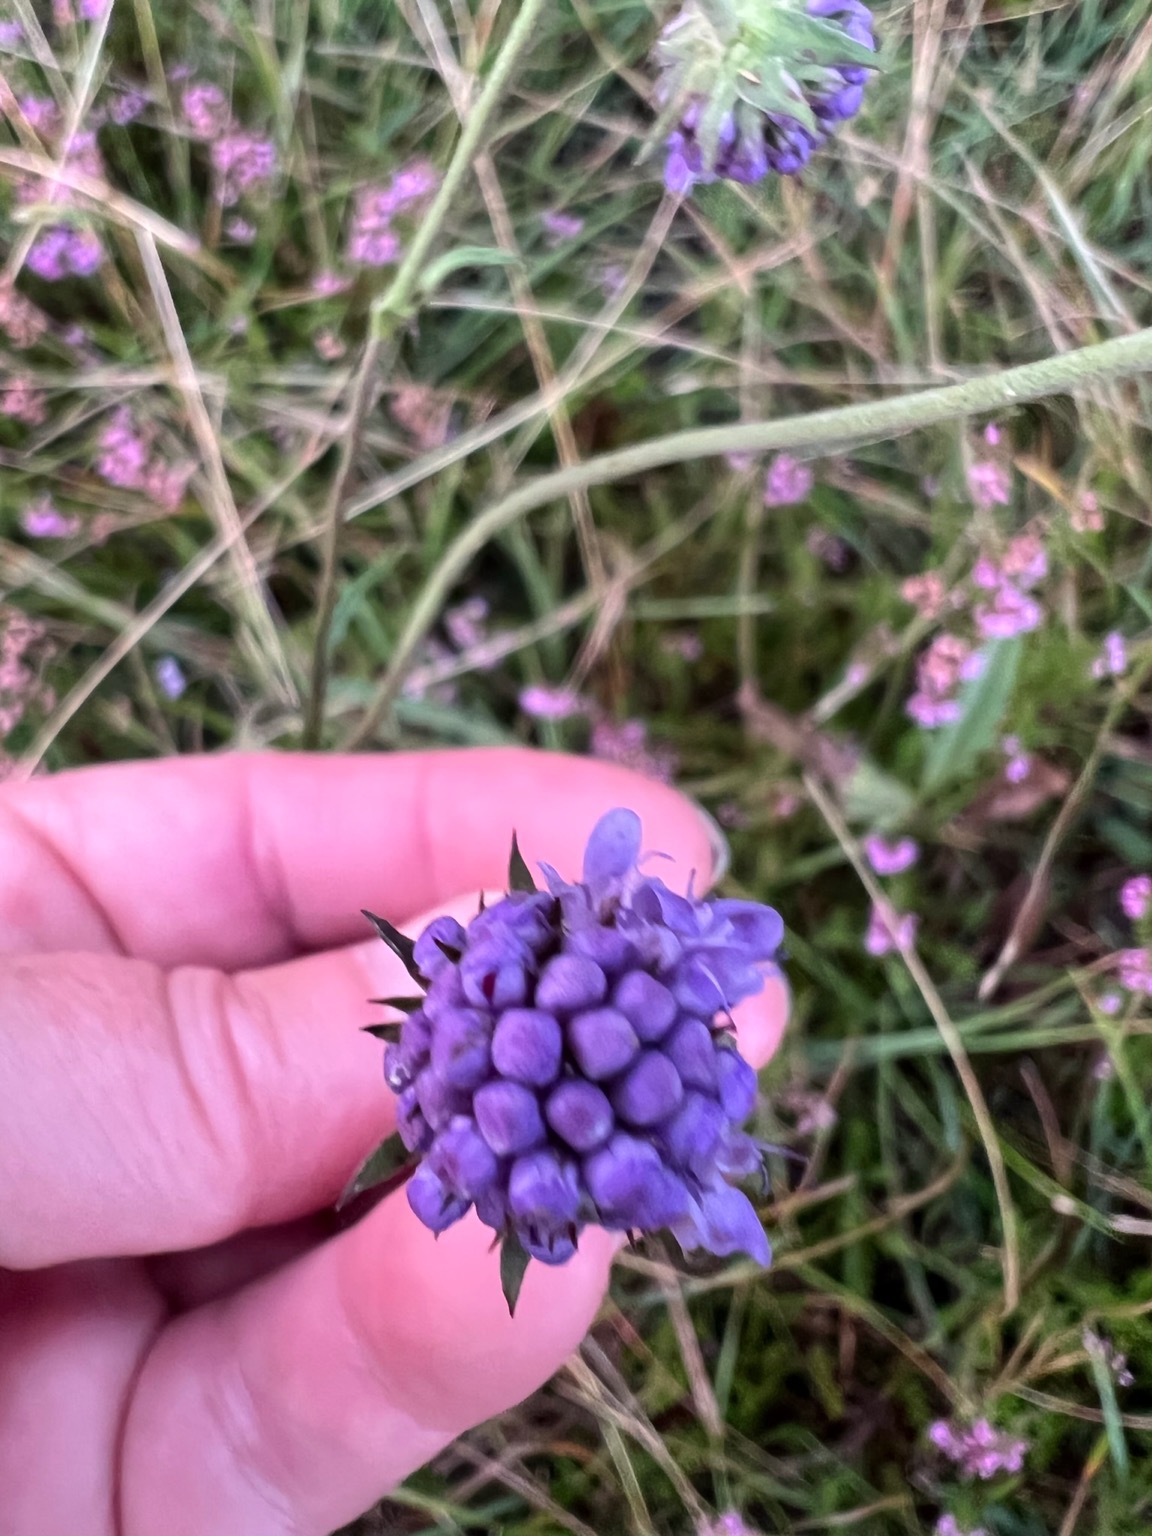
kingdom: Plantae
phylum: Tracheophyta
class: Magnoliopsida
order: Dipsacales
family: Caprifoliaceae
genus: Succisa
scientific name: Succisa pratensis
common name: Djævelsbid
